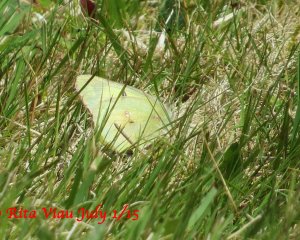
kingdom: Animalia
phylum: Arthropoda
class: Insecta
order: Lepidoptera
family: Pieridae
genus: Colias
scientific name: Colias philodice
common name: Clouded Sulphur
